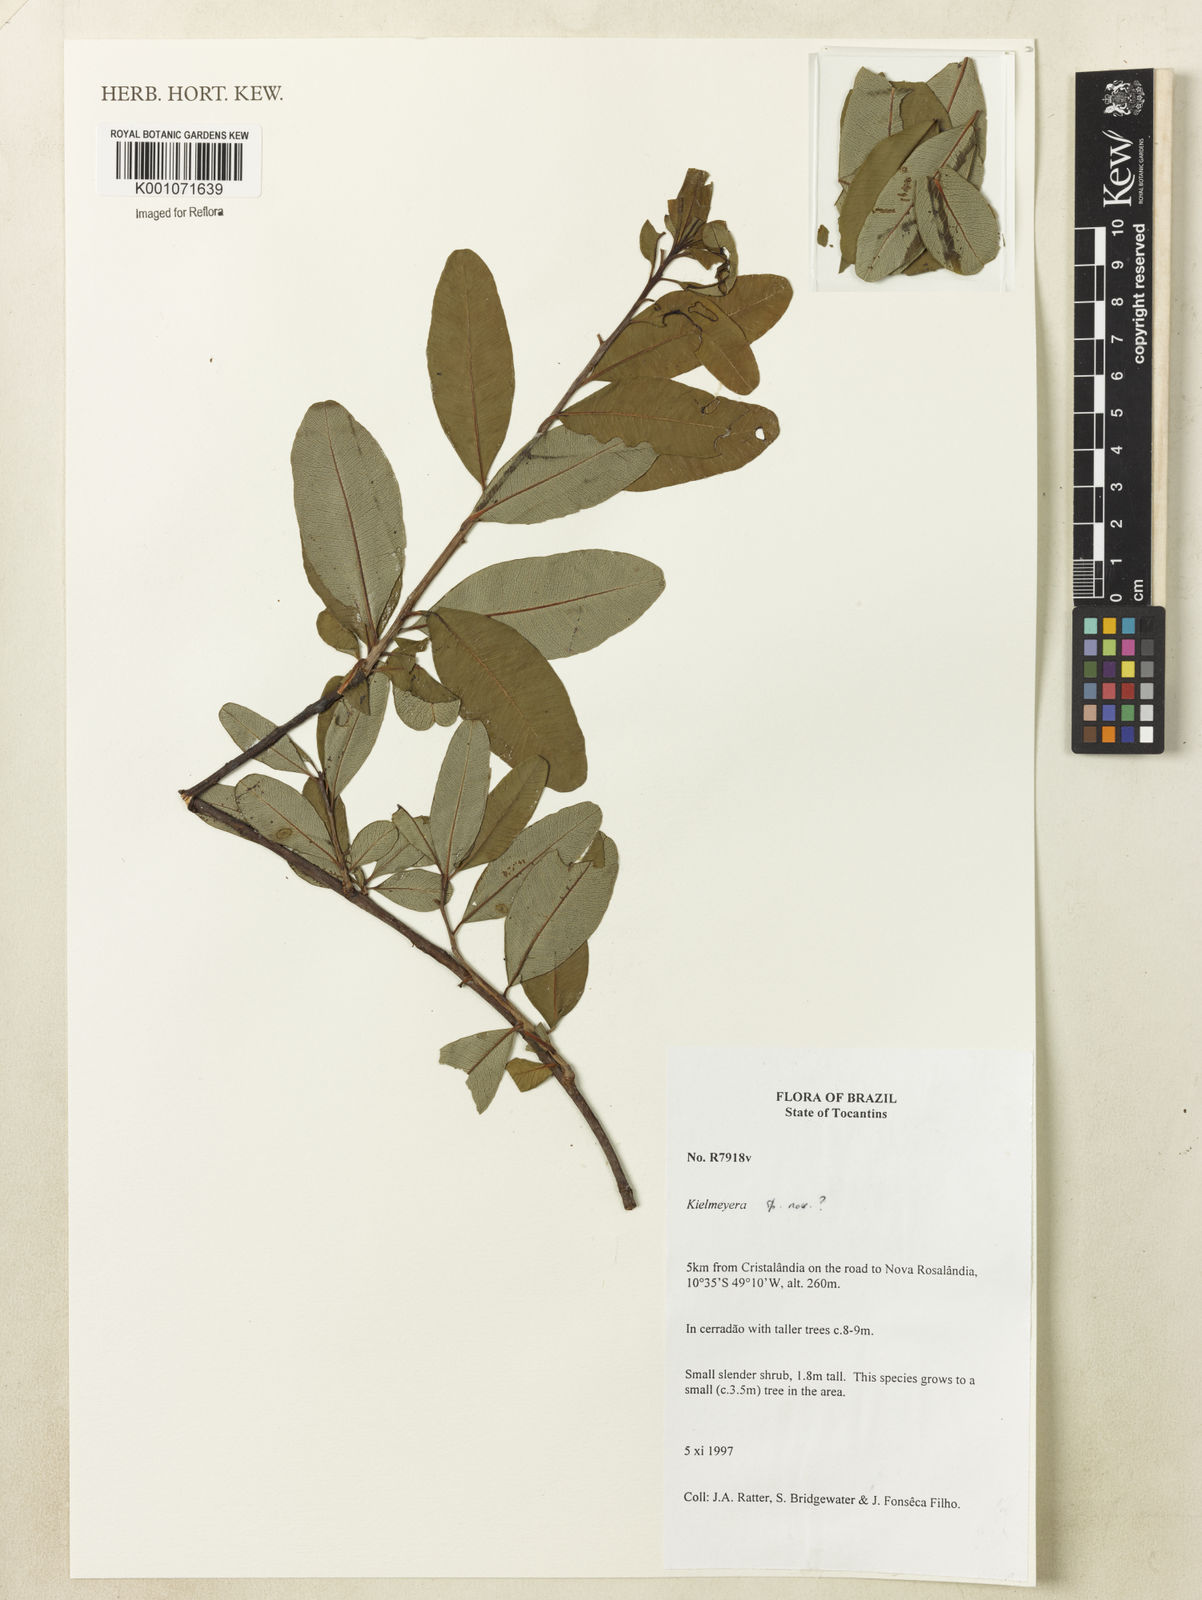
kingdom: Plantae
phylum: Tracheophyta
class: Magnoliopsida
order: Malpighiales
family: Calophyllaceae
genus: Kielmeyera
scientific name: Kielmeyera
